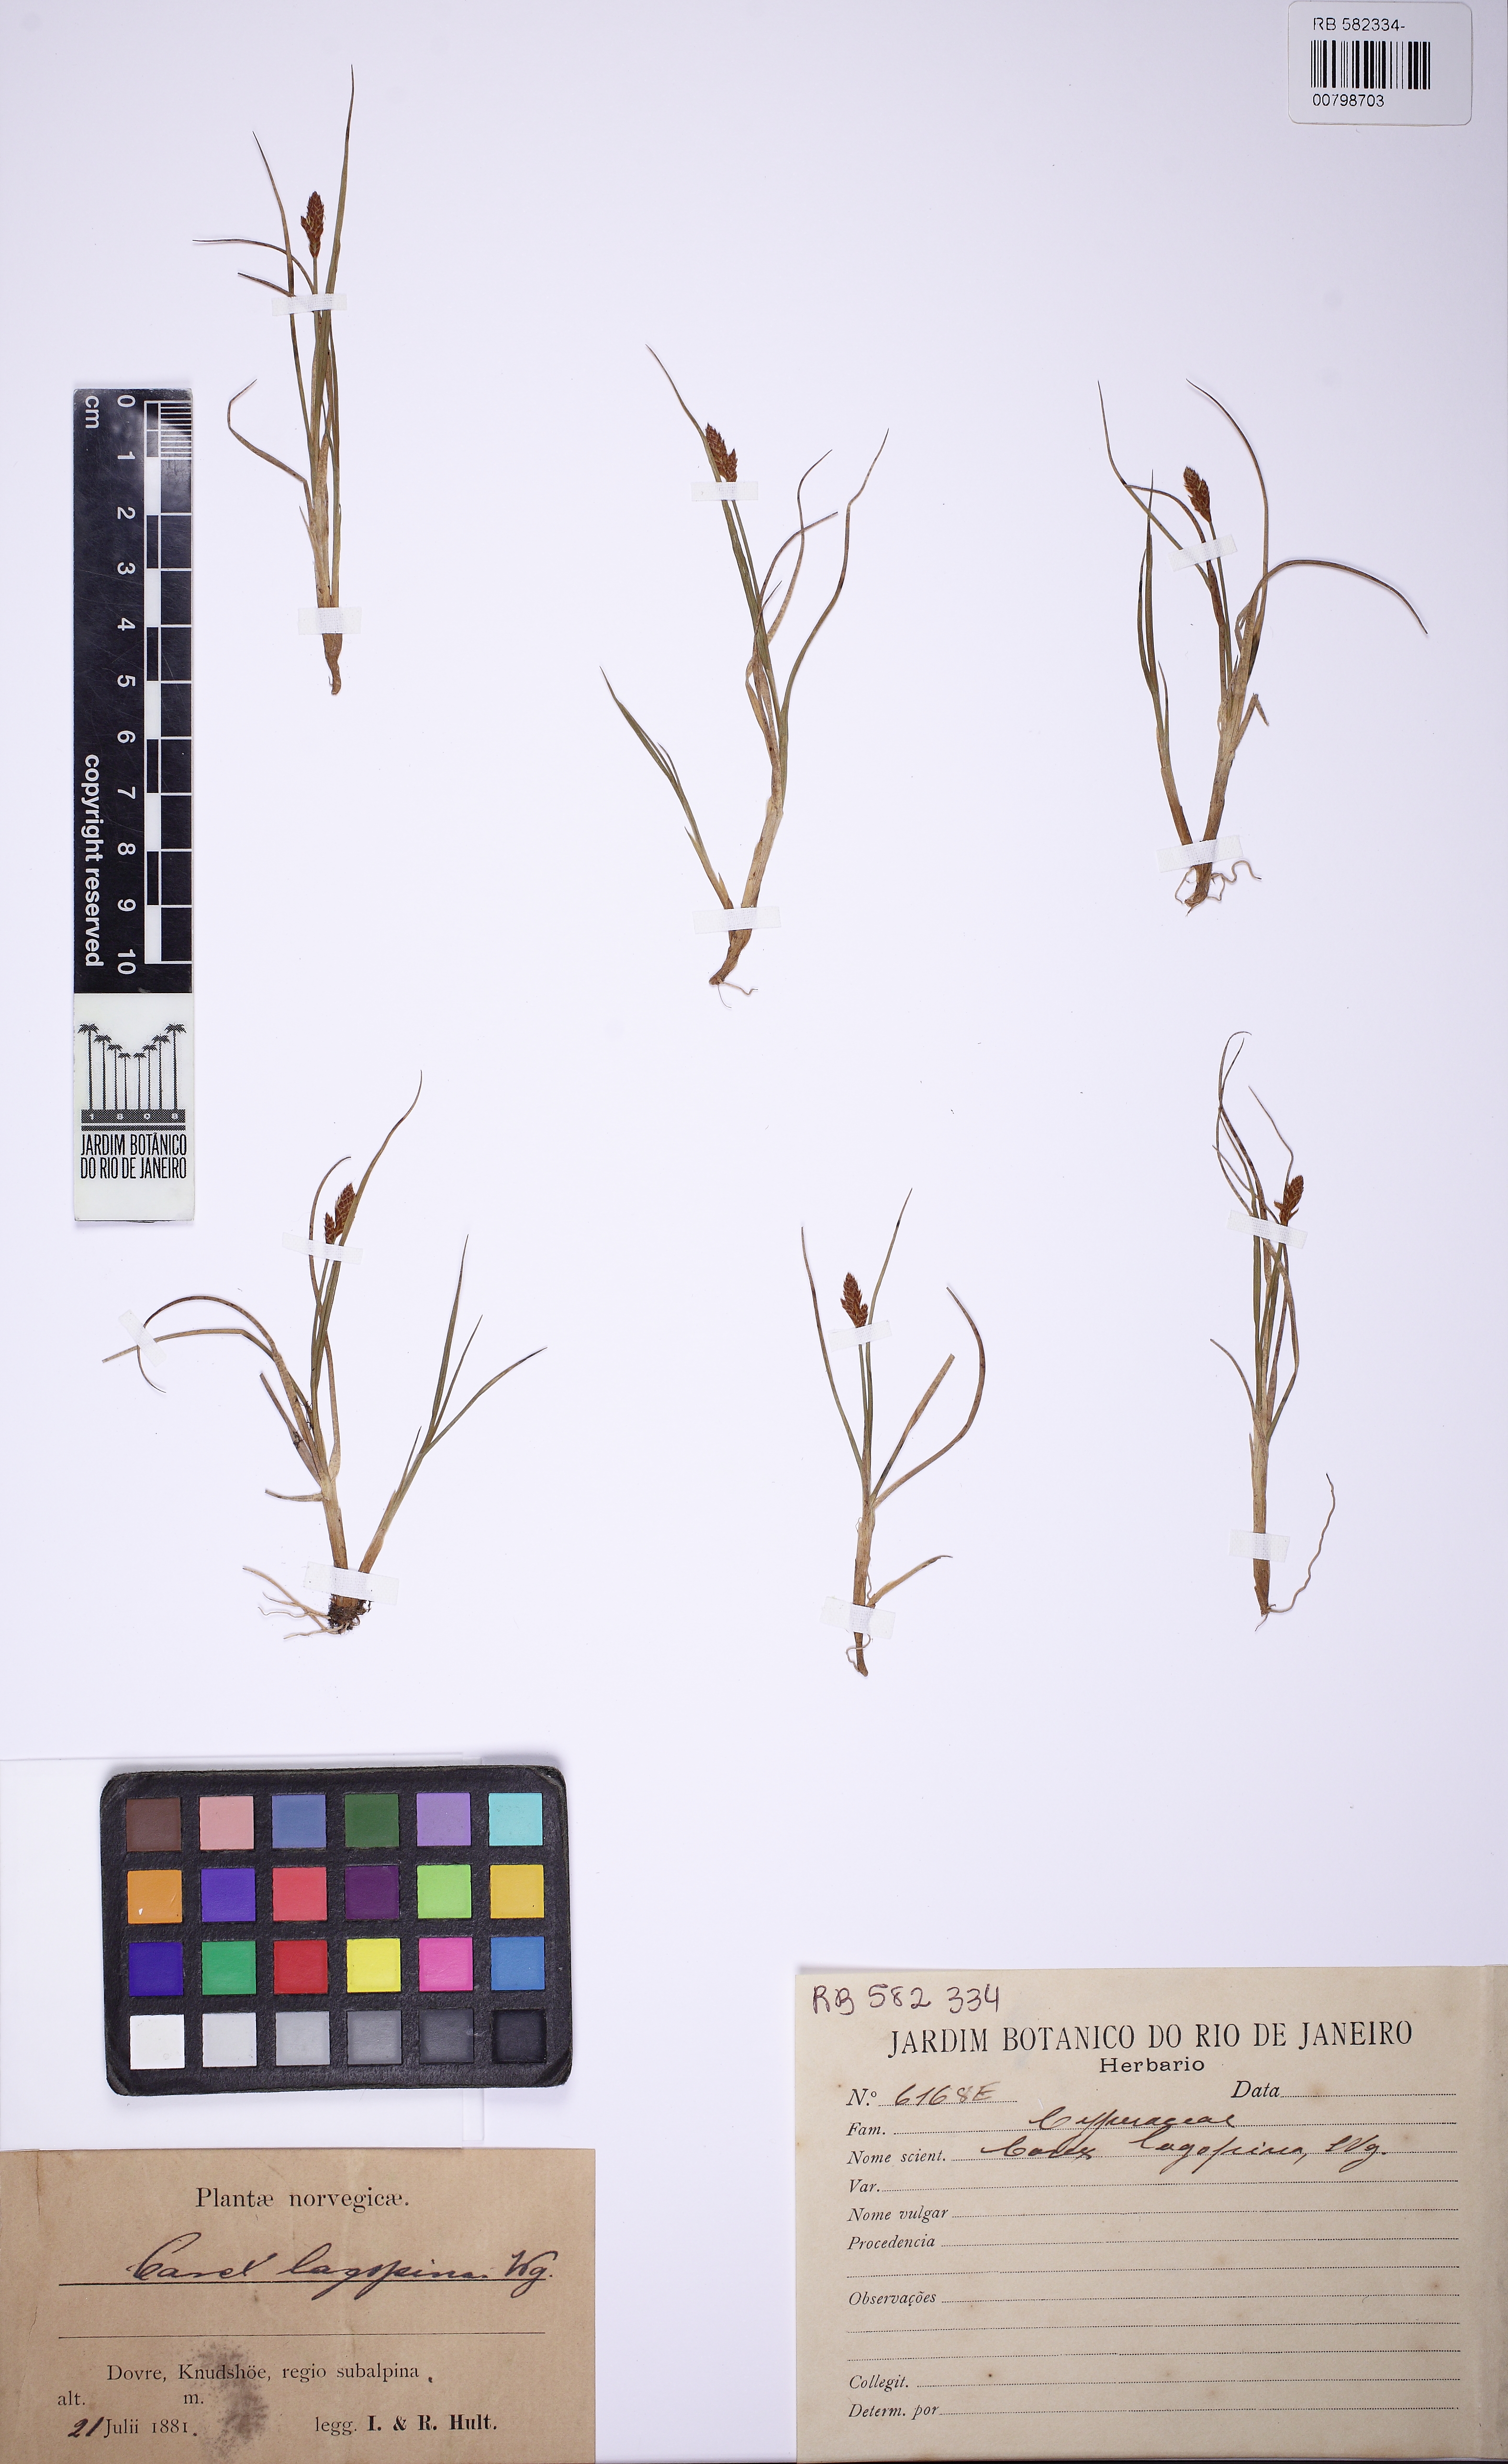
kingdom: Plantae
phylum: Tracheophyta
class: Liliopsida
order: Poales
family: Cyperaceae
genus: Carex
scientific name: Carex lachenalii
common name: Hare's-foot sedge
